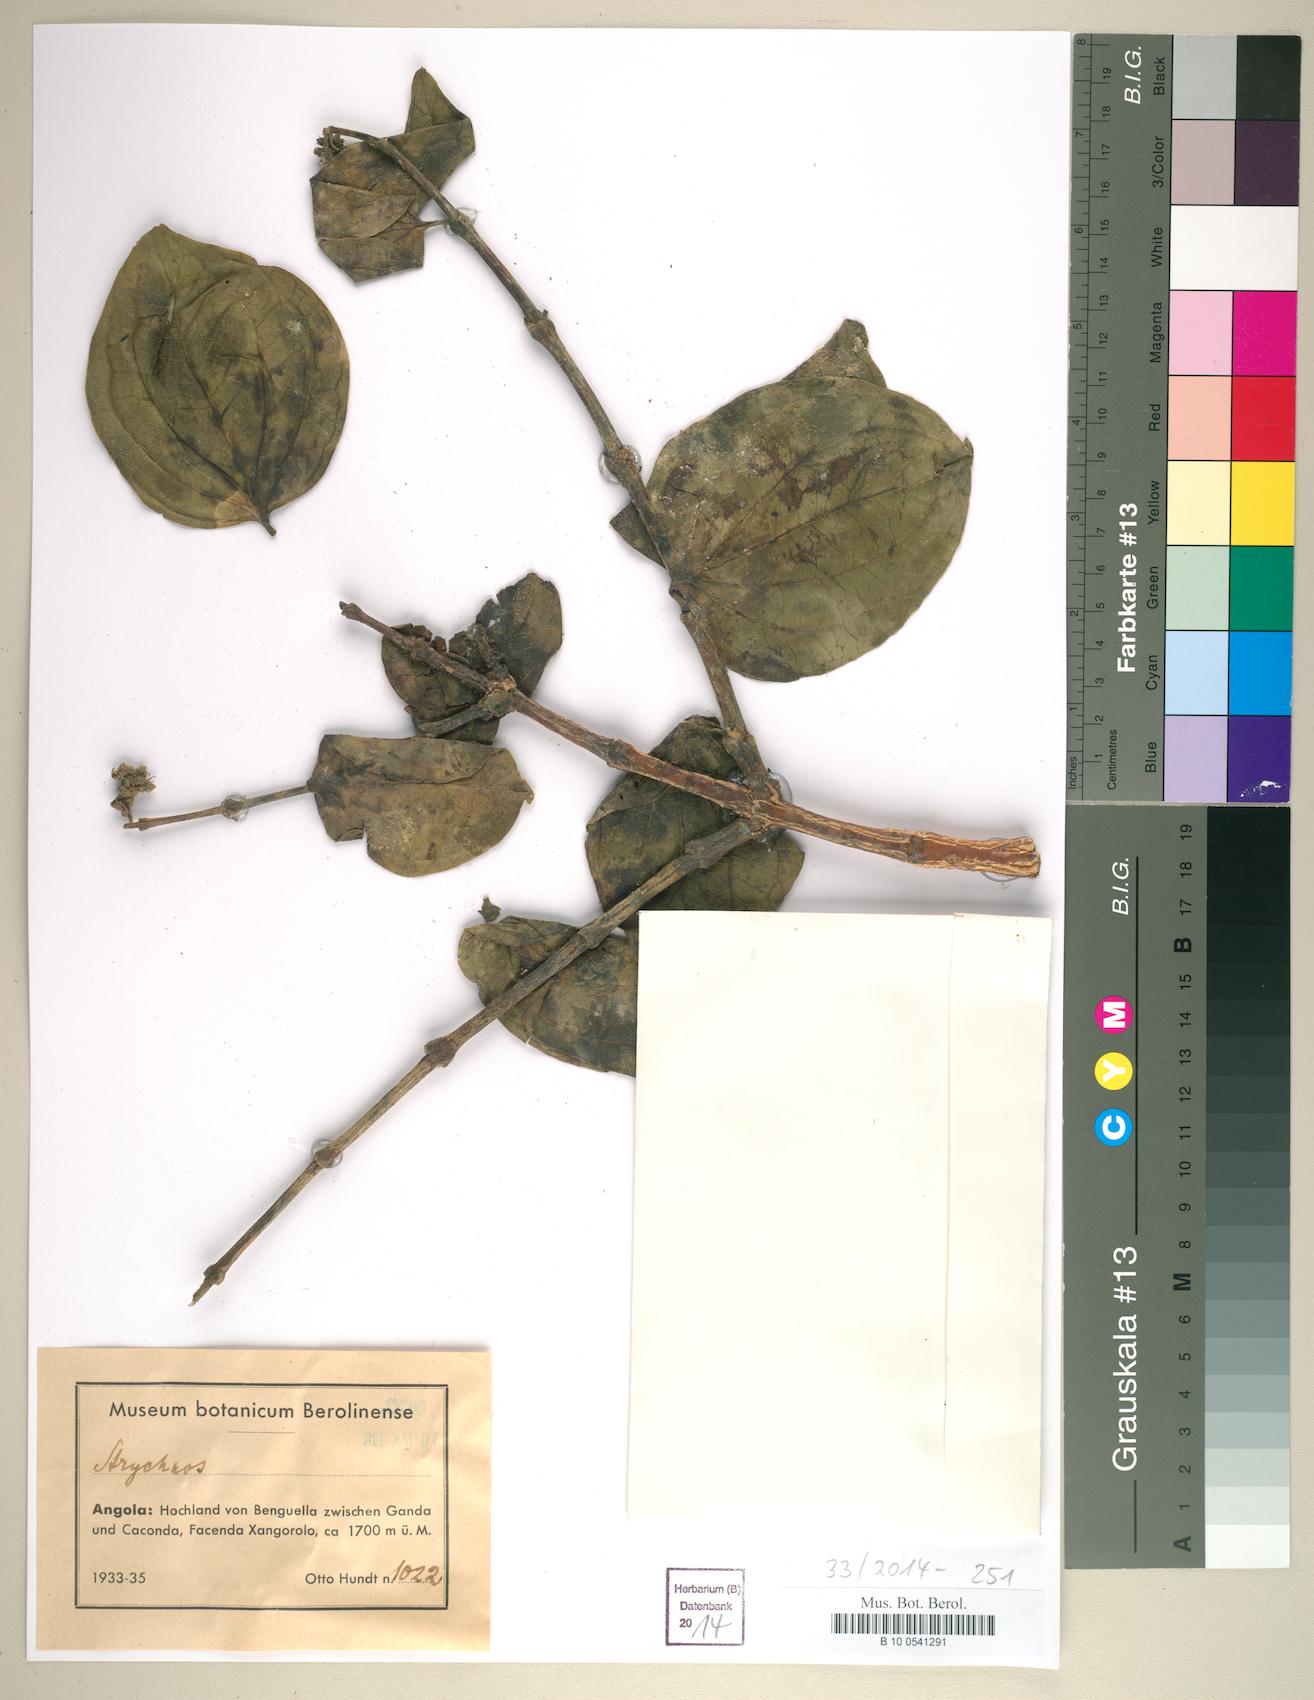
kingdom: Plantae
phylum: Tracheophyta
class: Magnoliopsida
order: Gentianales
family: Loganiaceae
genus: Strychnos
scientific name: Strychnos
